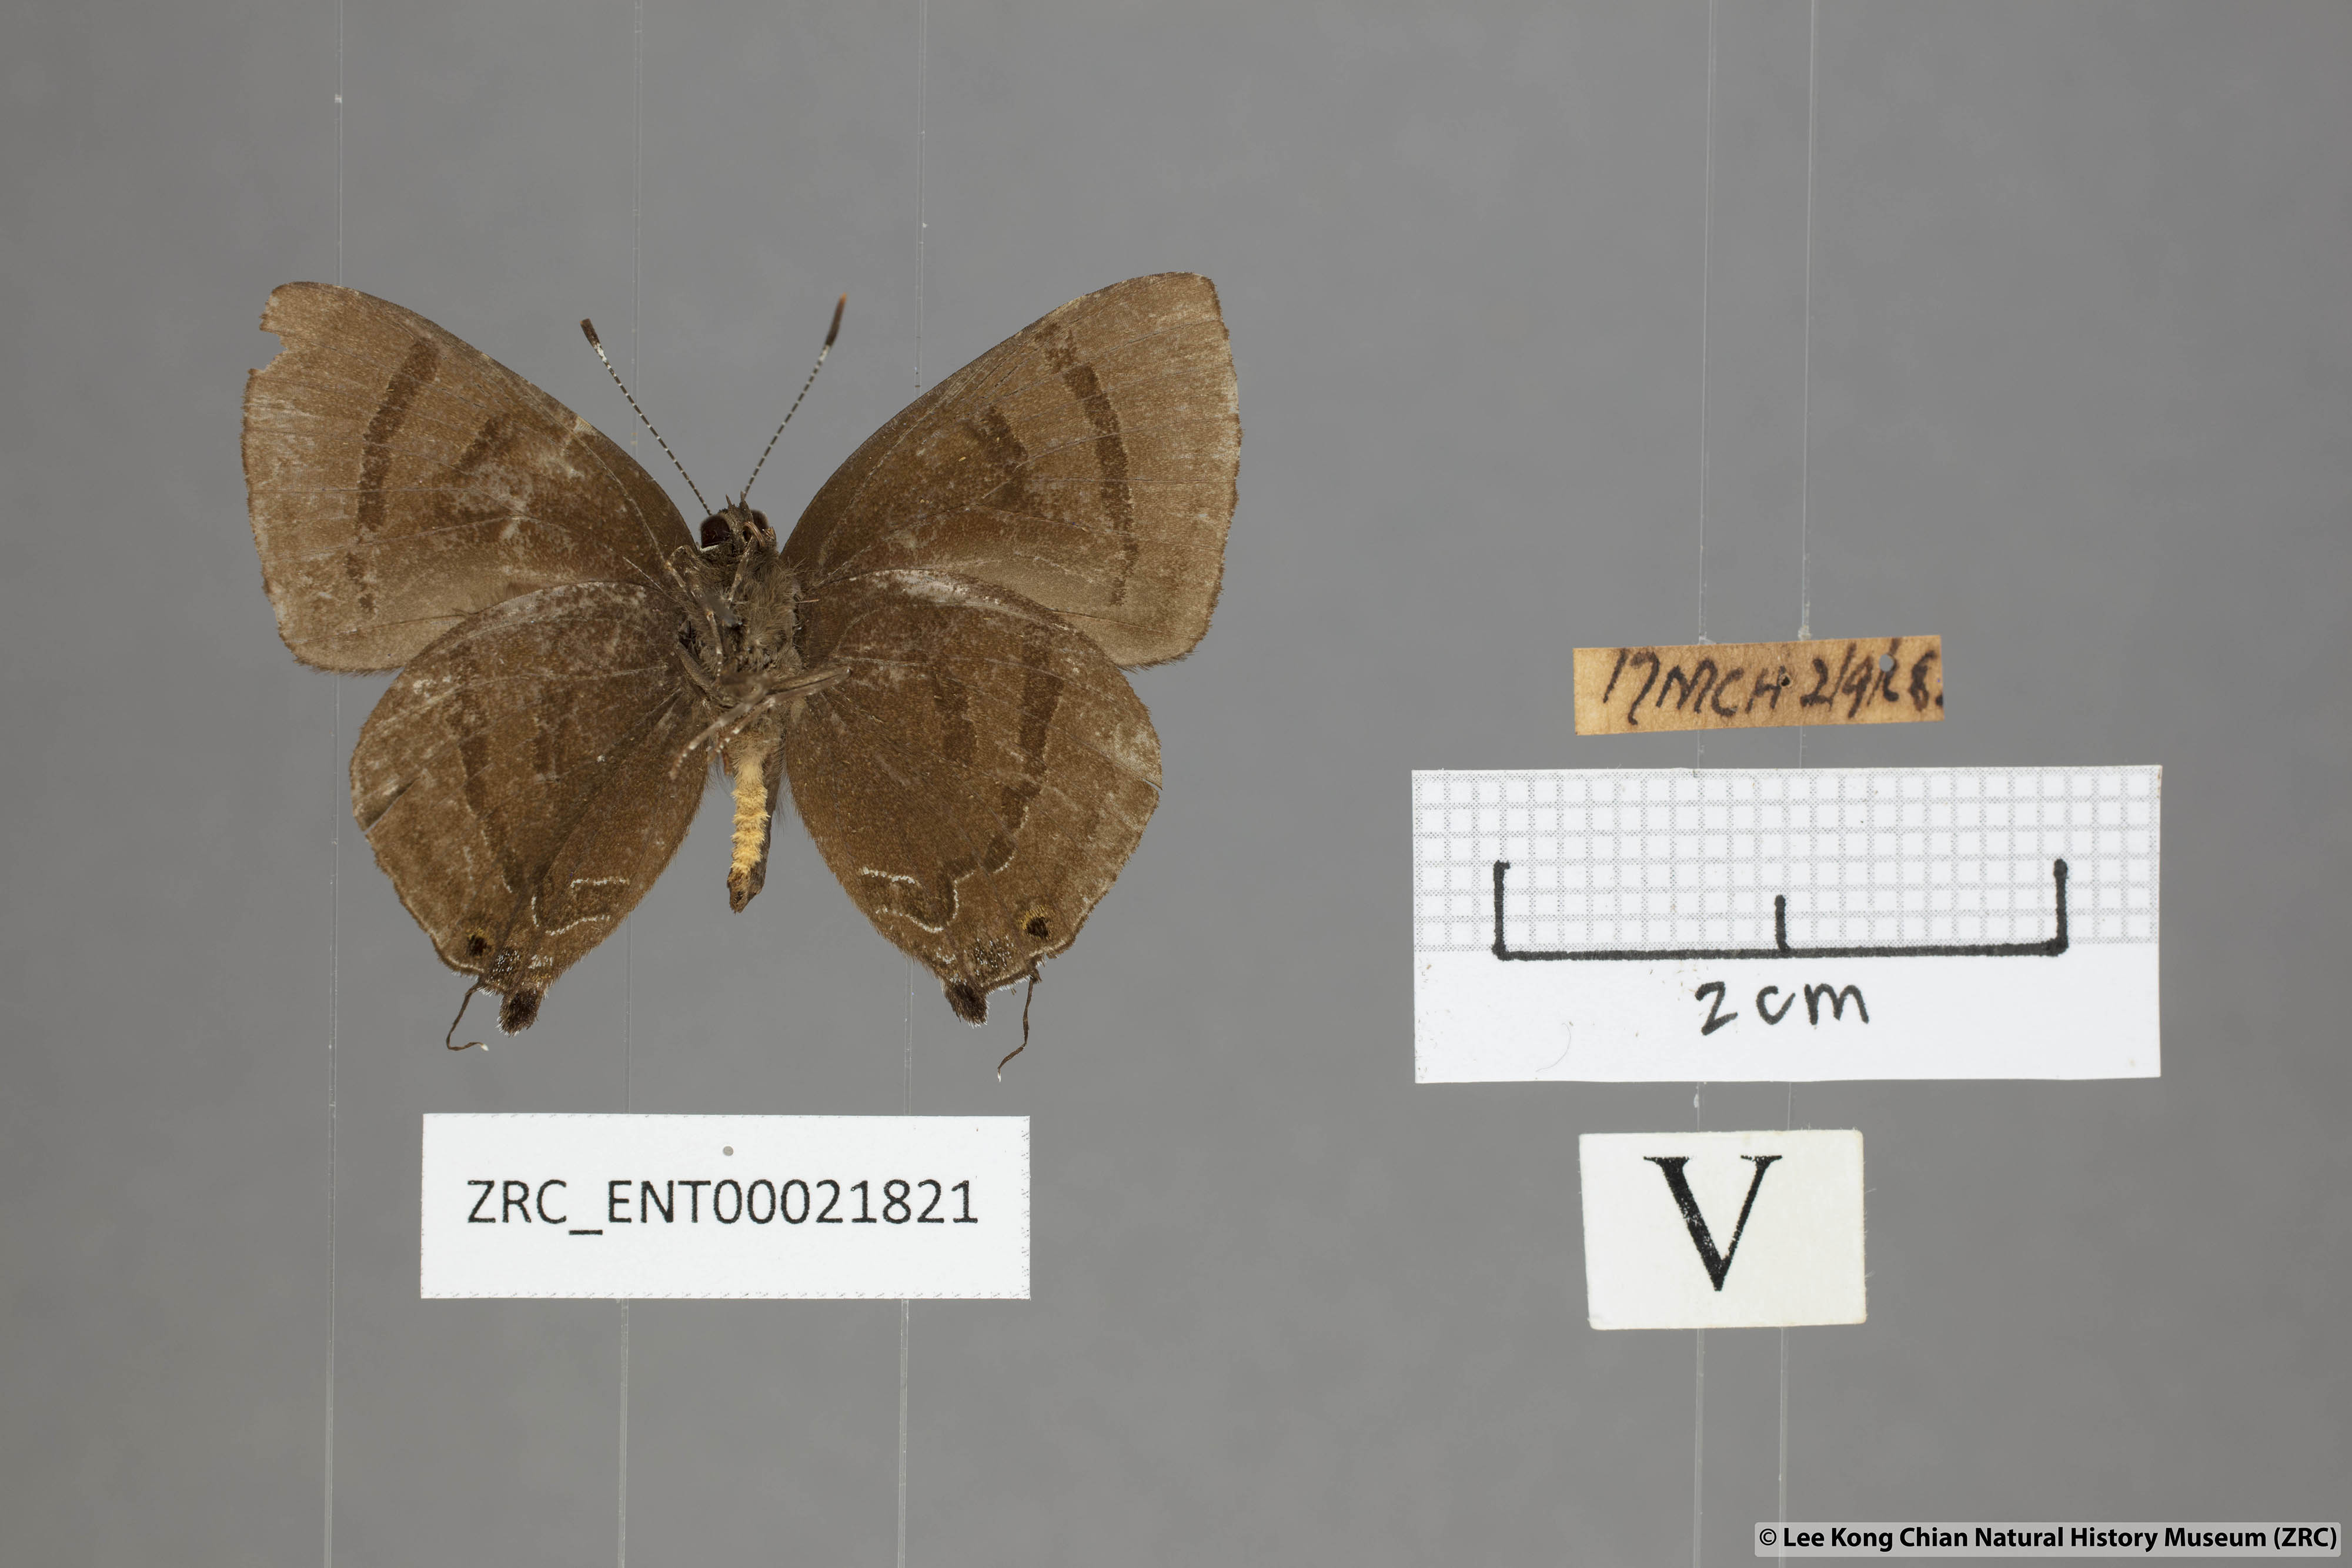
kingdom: Animalia
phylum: Arthropoda
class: Insecta
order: Lepidoptera
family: Lycaenidae
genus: Rapala
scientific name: Rapala rhoecus
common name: Brilliant flash
